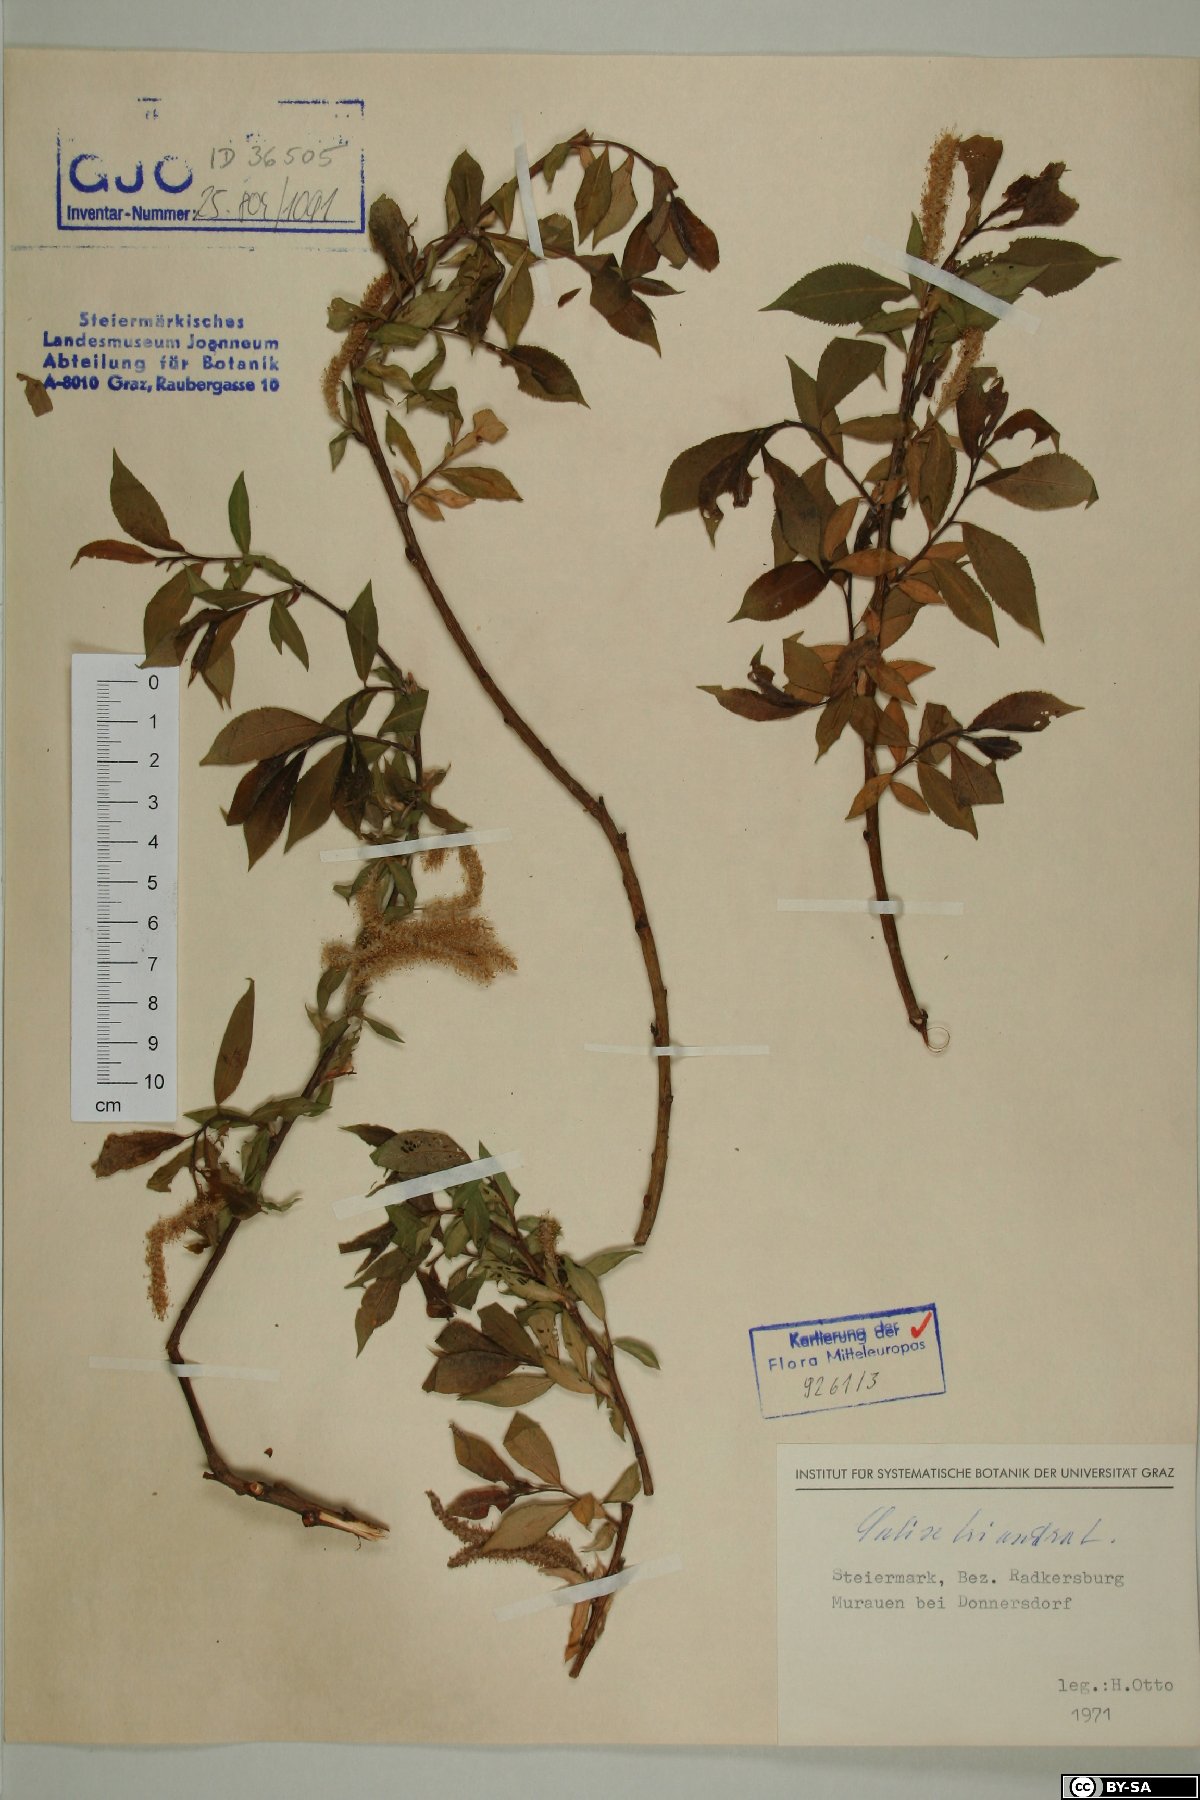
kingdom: Plantae
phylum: Tracheophyta
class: Magnoliopsida
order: Malpighiales
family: Salicaceae
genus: Salix
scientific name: Salix triandra
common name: Almond willow
